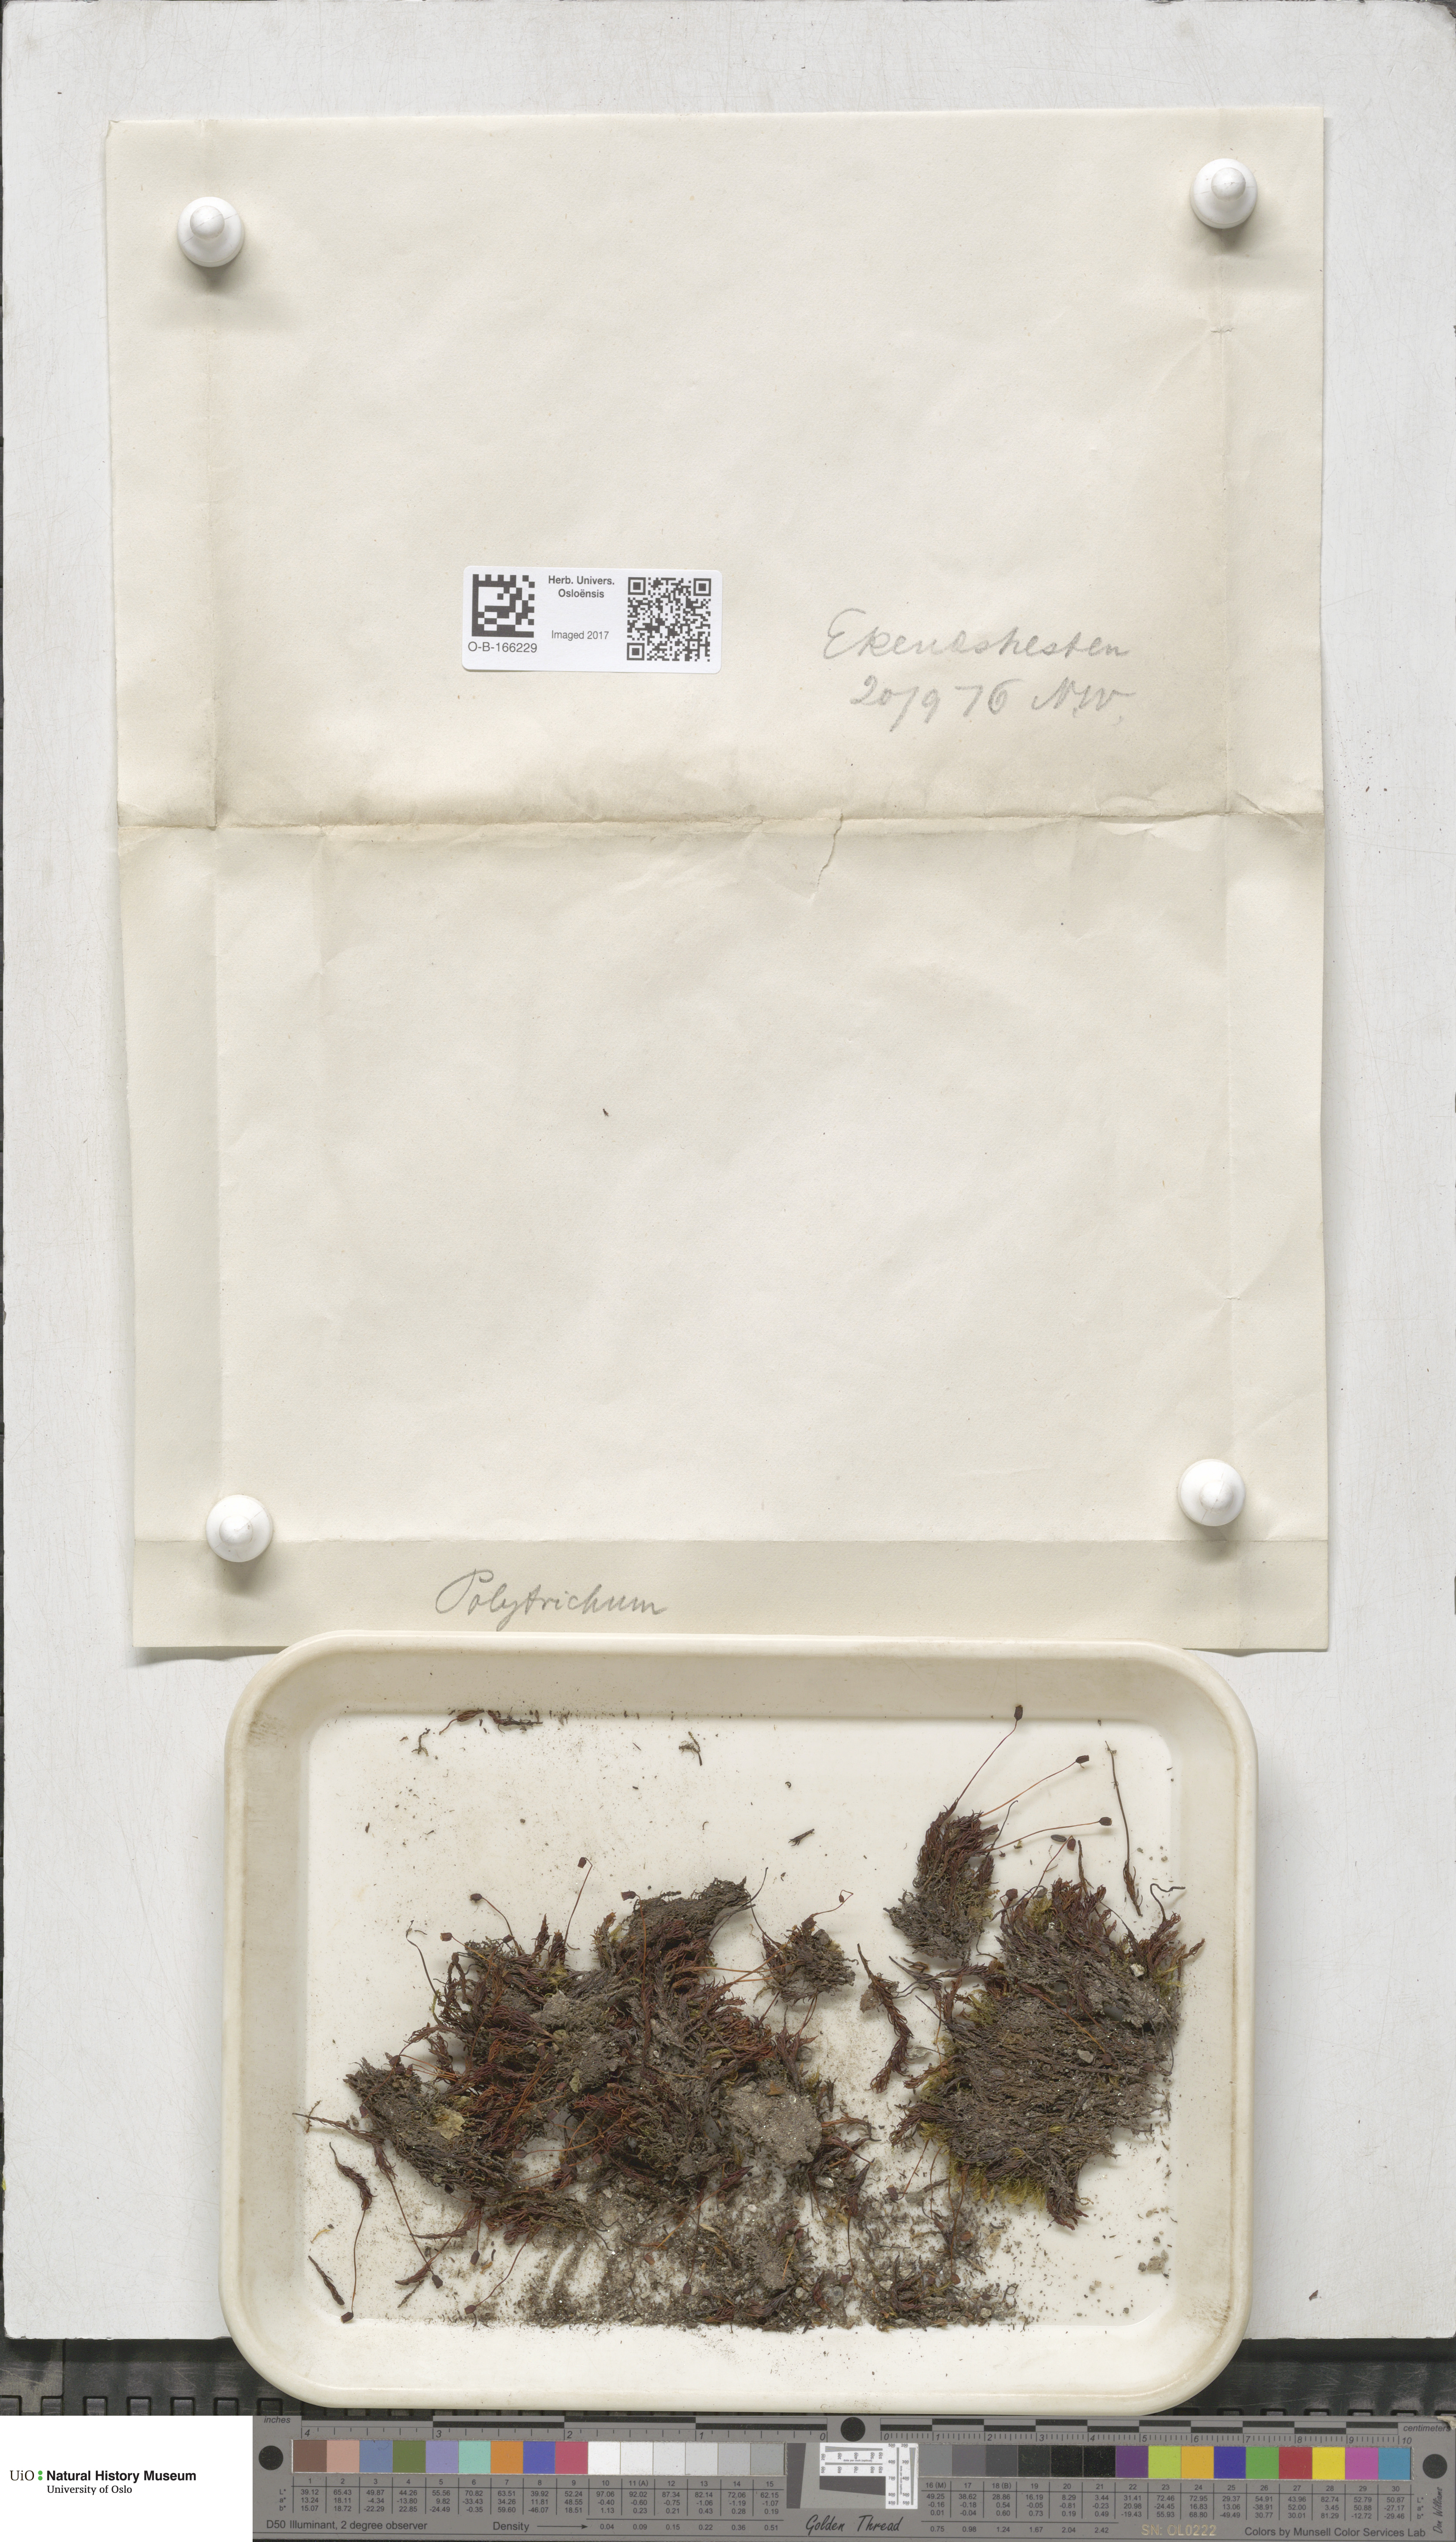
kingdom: Plantae
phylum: Bryophyta
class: Polytrichopsida
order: Polytrichales
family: Polytrichaceae
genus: Polytrichum
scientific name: Polytrichum
